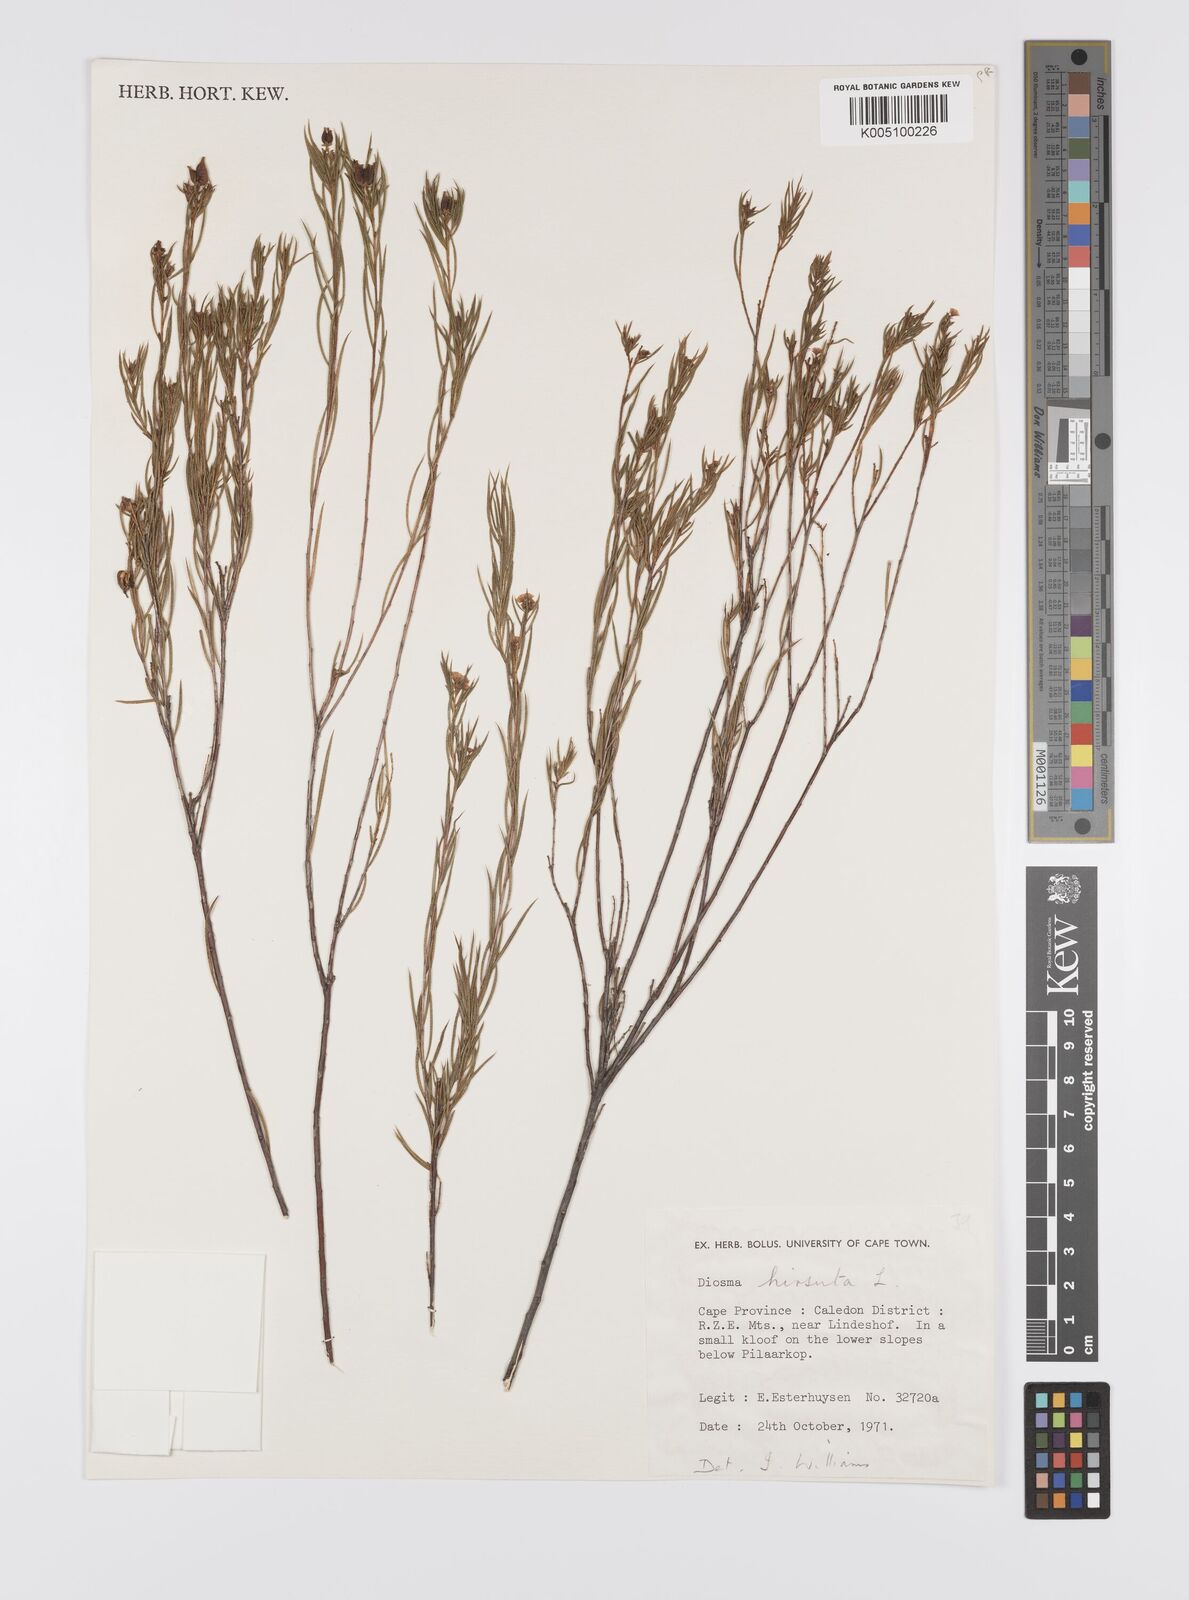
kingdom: Plantae
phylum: Tracheophyta
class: Magnoliopsida
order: Sapindales
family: Rutaceae
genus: Diosma
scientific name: Diosma hirsuta
